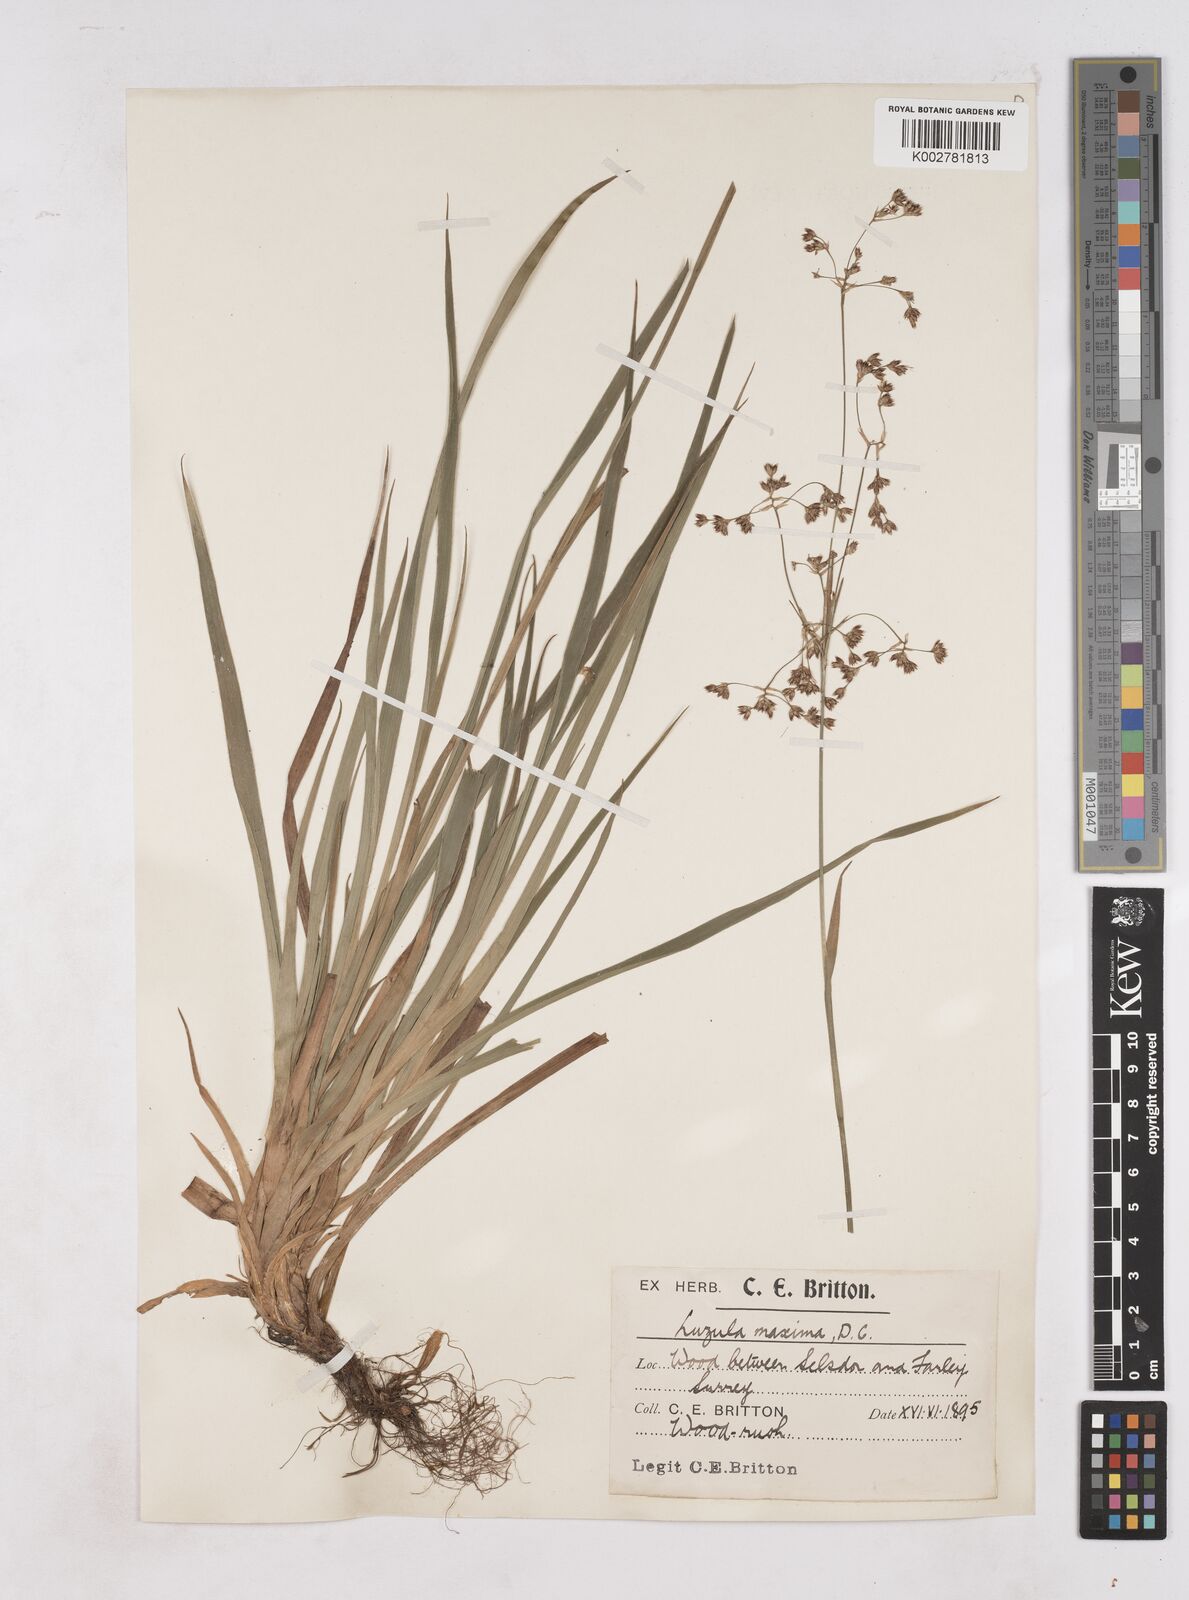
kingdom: Plantae
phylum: Tracheophyta
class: Liliopsida
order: Poales
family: Juncaceae
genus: Luzula
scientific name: Luzula sylvatica
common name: Great wood-rush
